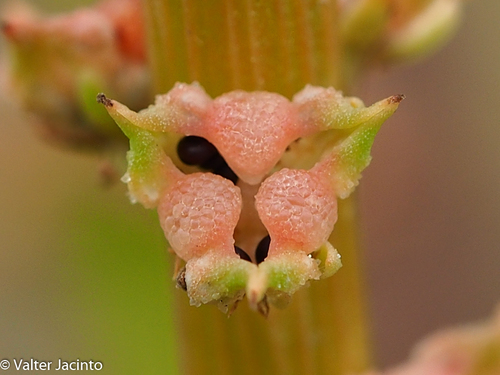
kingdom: Plantae
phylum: Tracheophyta
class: Magnoliopsida
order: Brassicales
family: Resedaceae
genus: Reseda
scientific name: Reseda lutea
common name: Wild mignonette
